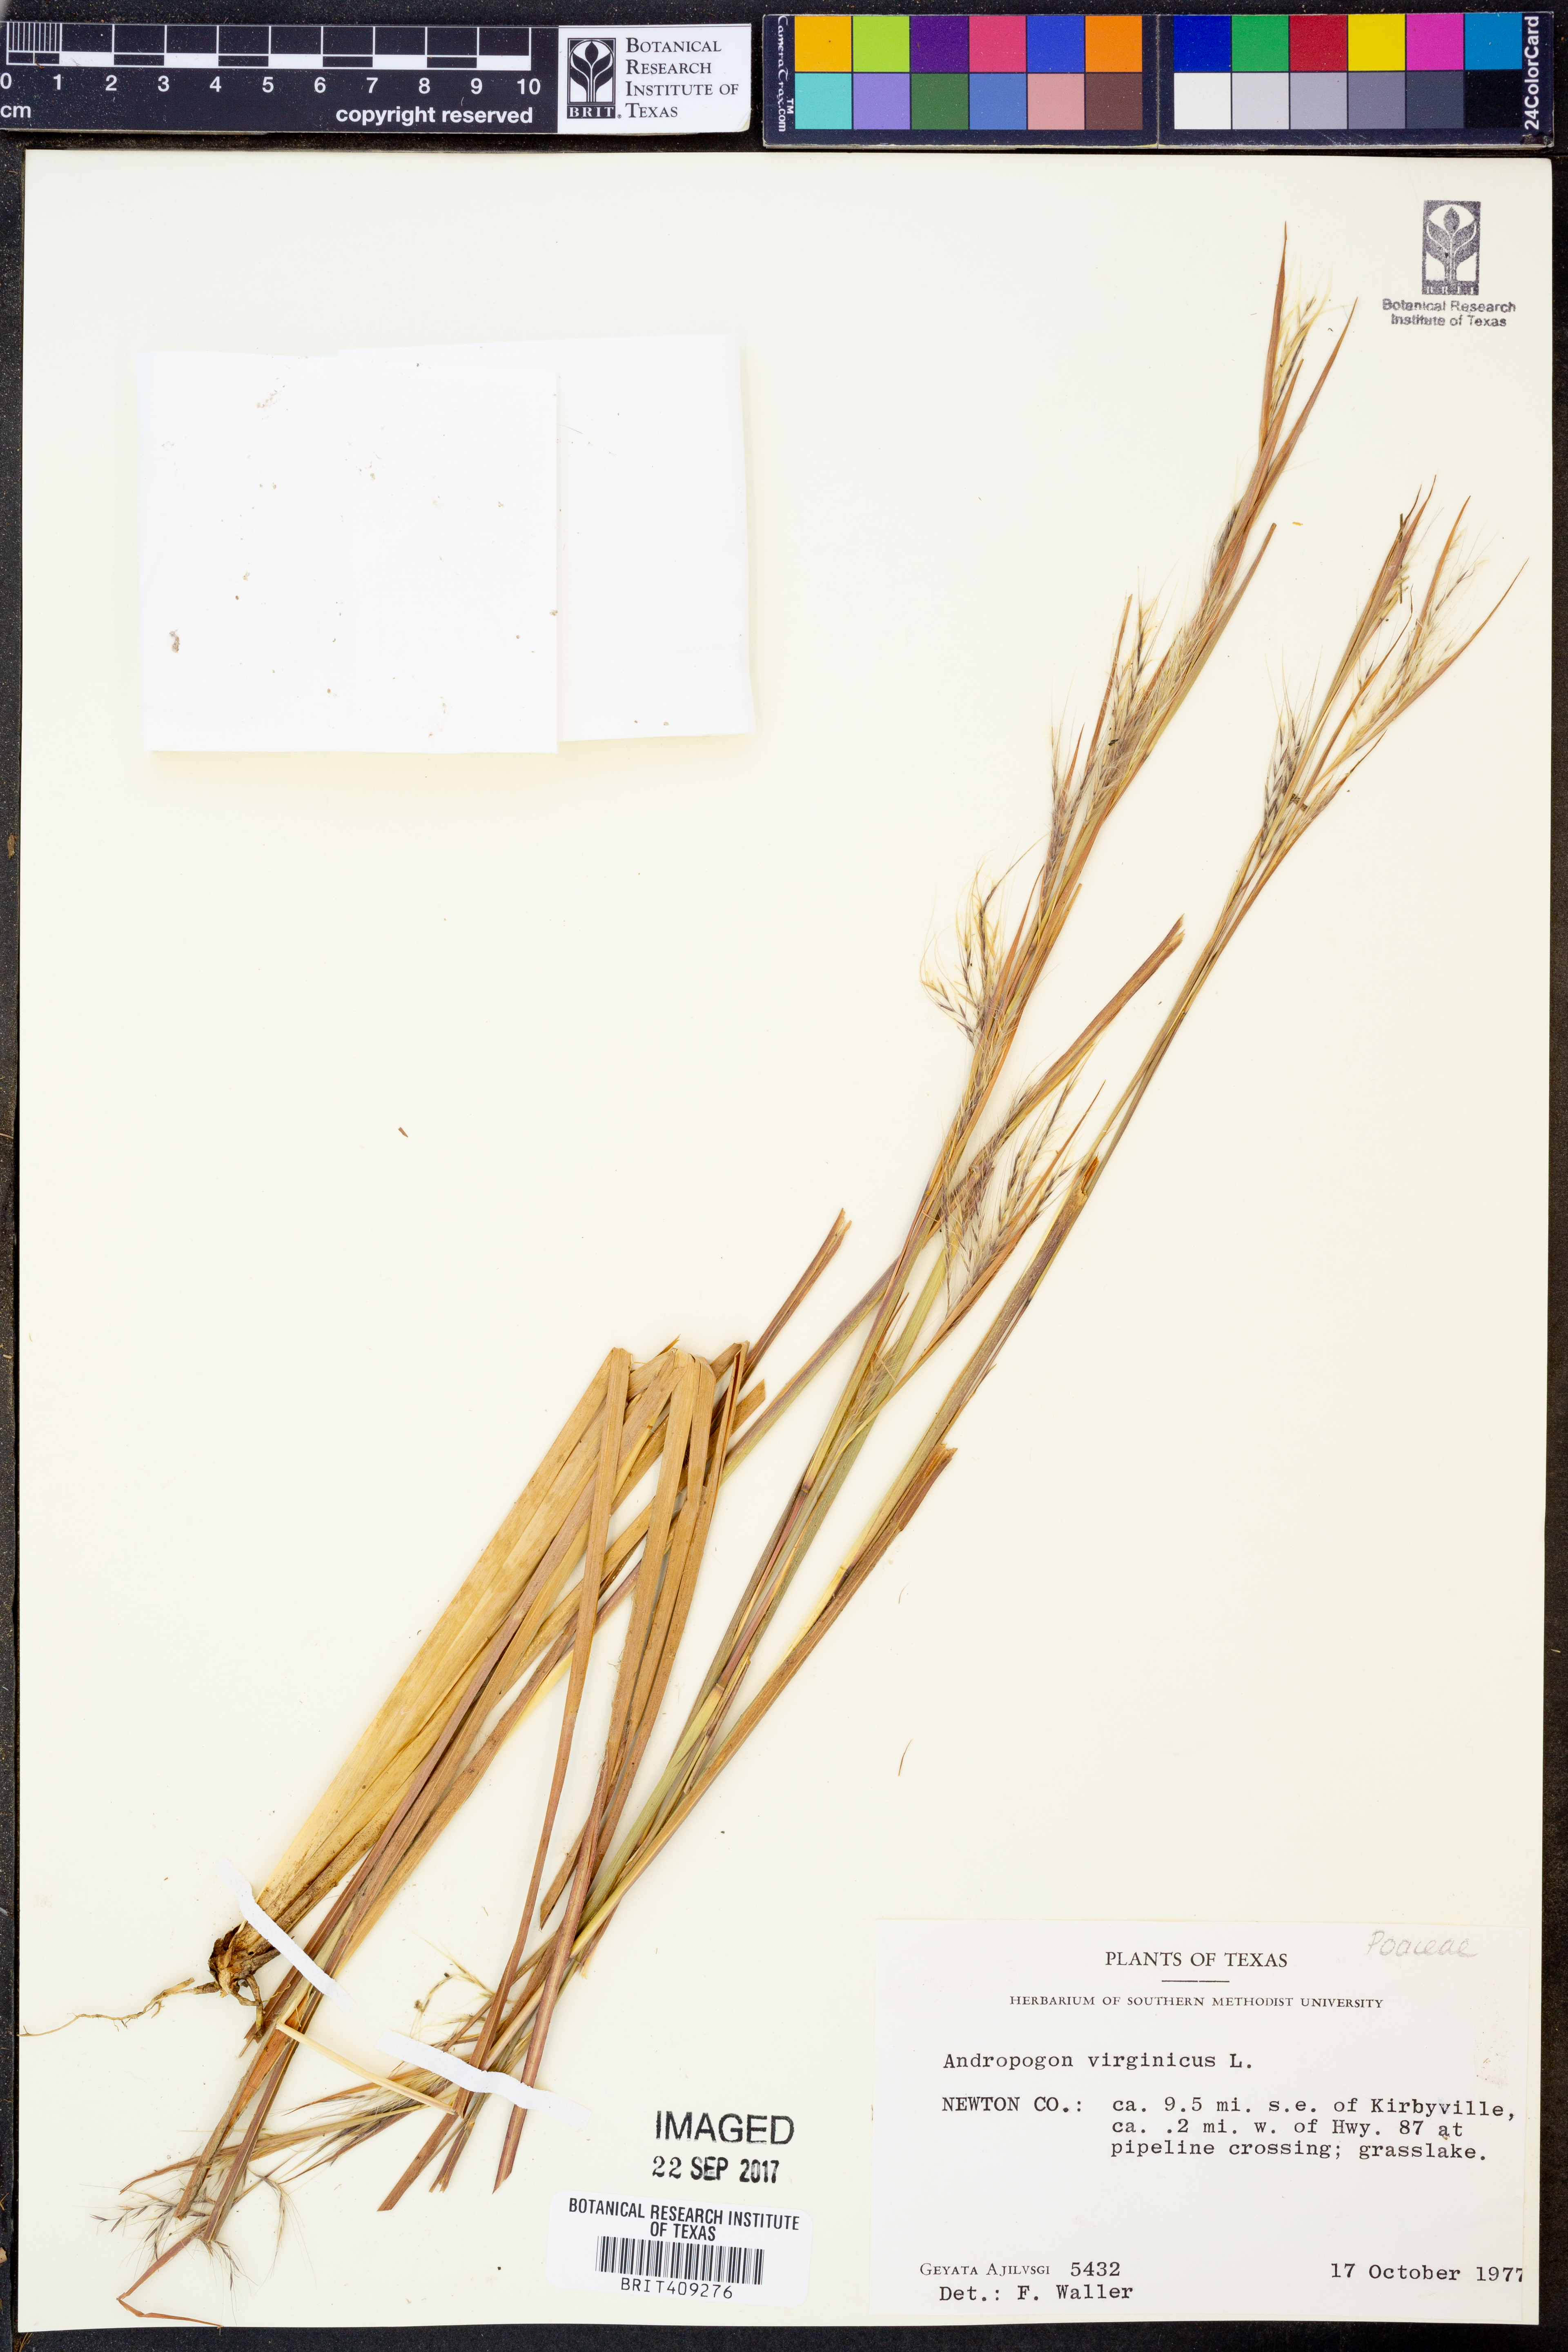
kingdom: Plantae
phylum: Tracheophyta
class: Liliopsida
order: Poales
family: Poaceae
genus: Andropogon
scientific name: Andropogon virginicus
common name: Broomsedge bluestem
